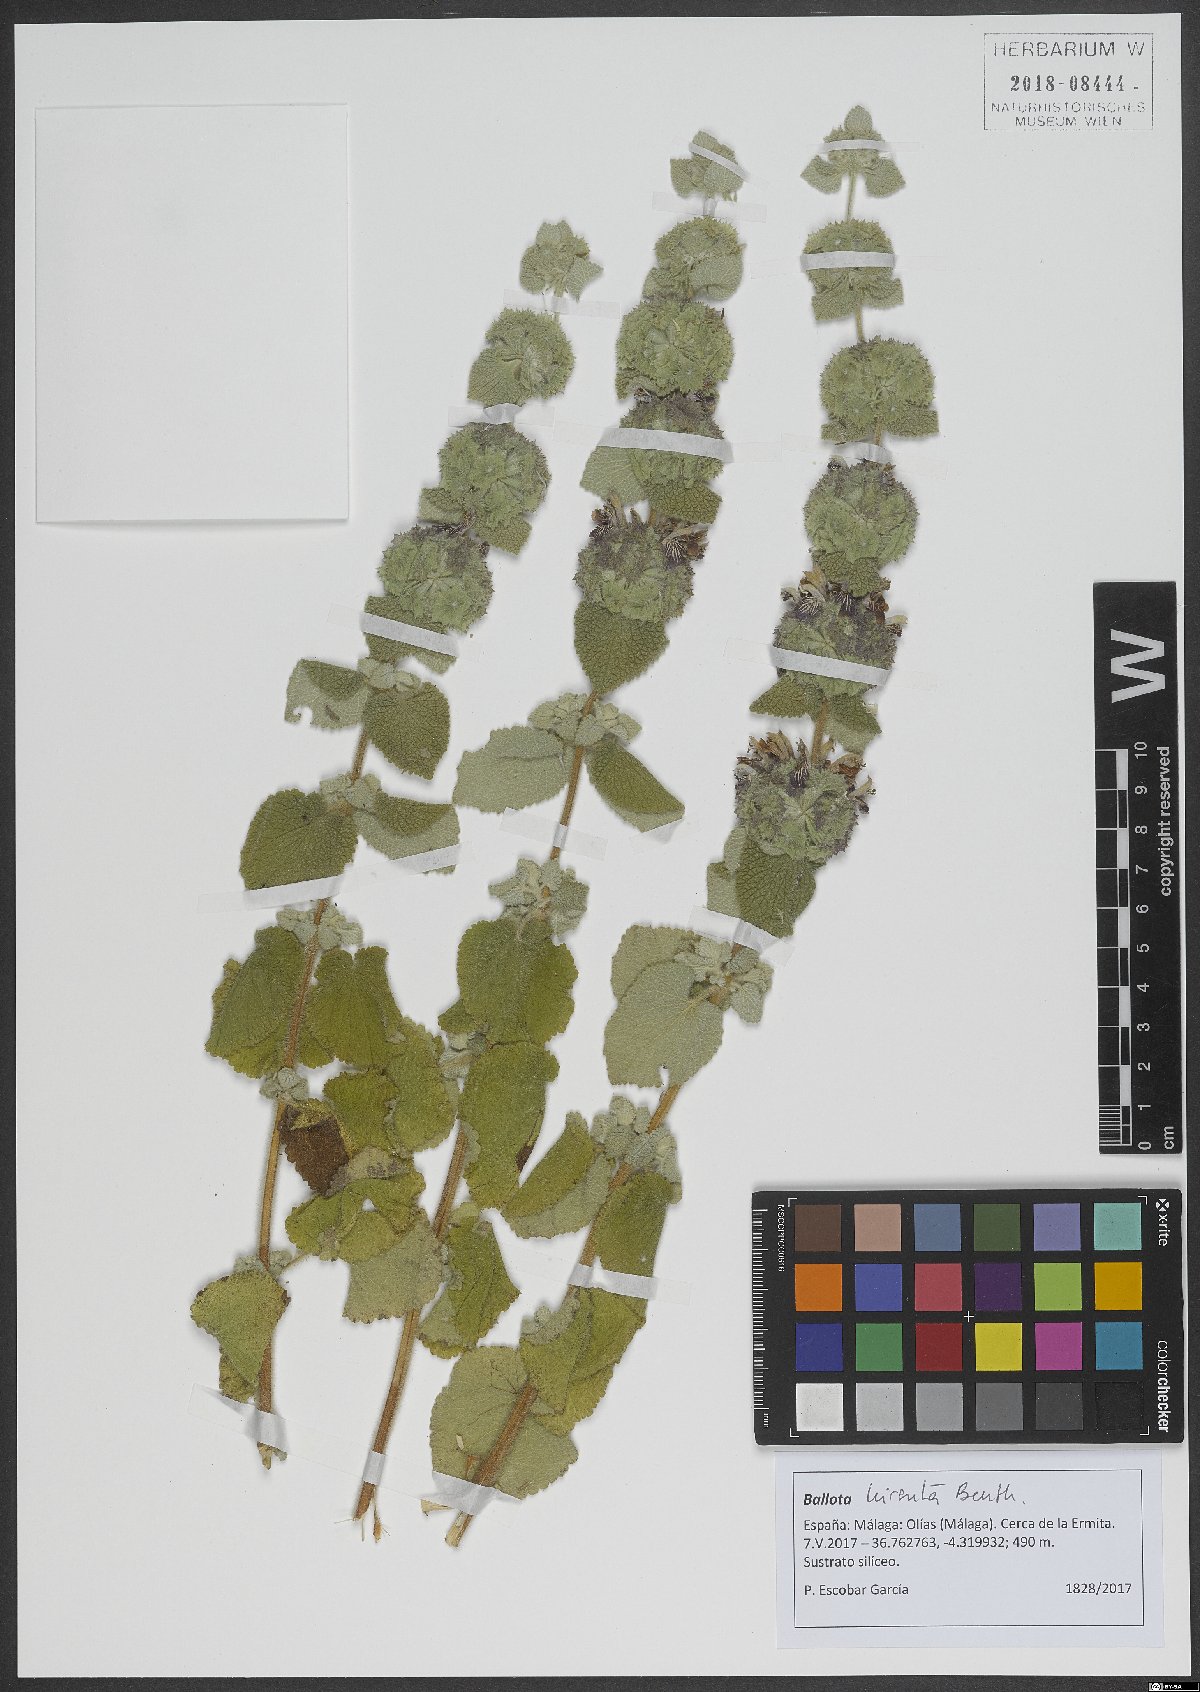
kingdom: Plantae
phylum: Tracheophyta
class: Magnoliopsida
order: Lamiales
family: Lamiaceae
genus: Pseudodictamnus
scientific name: Pseudodictamnus hirsutus
